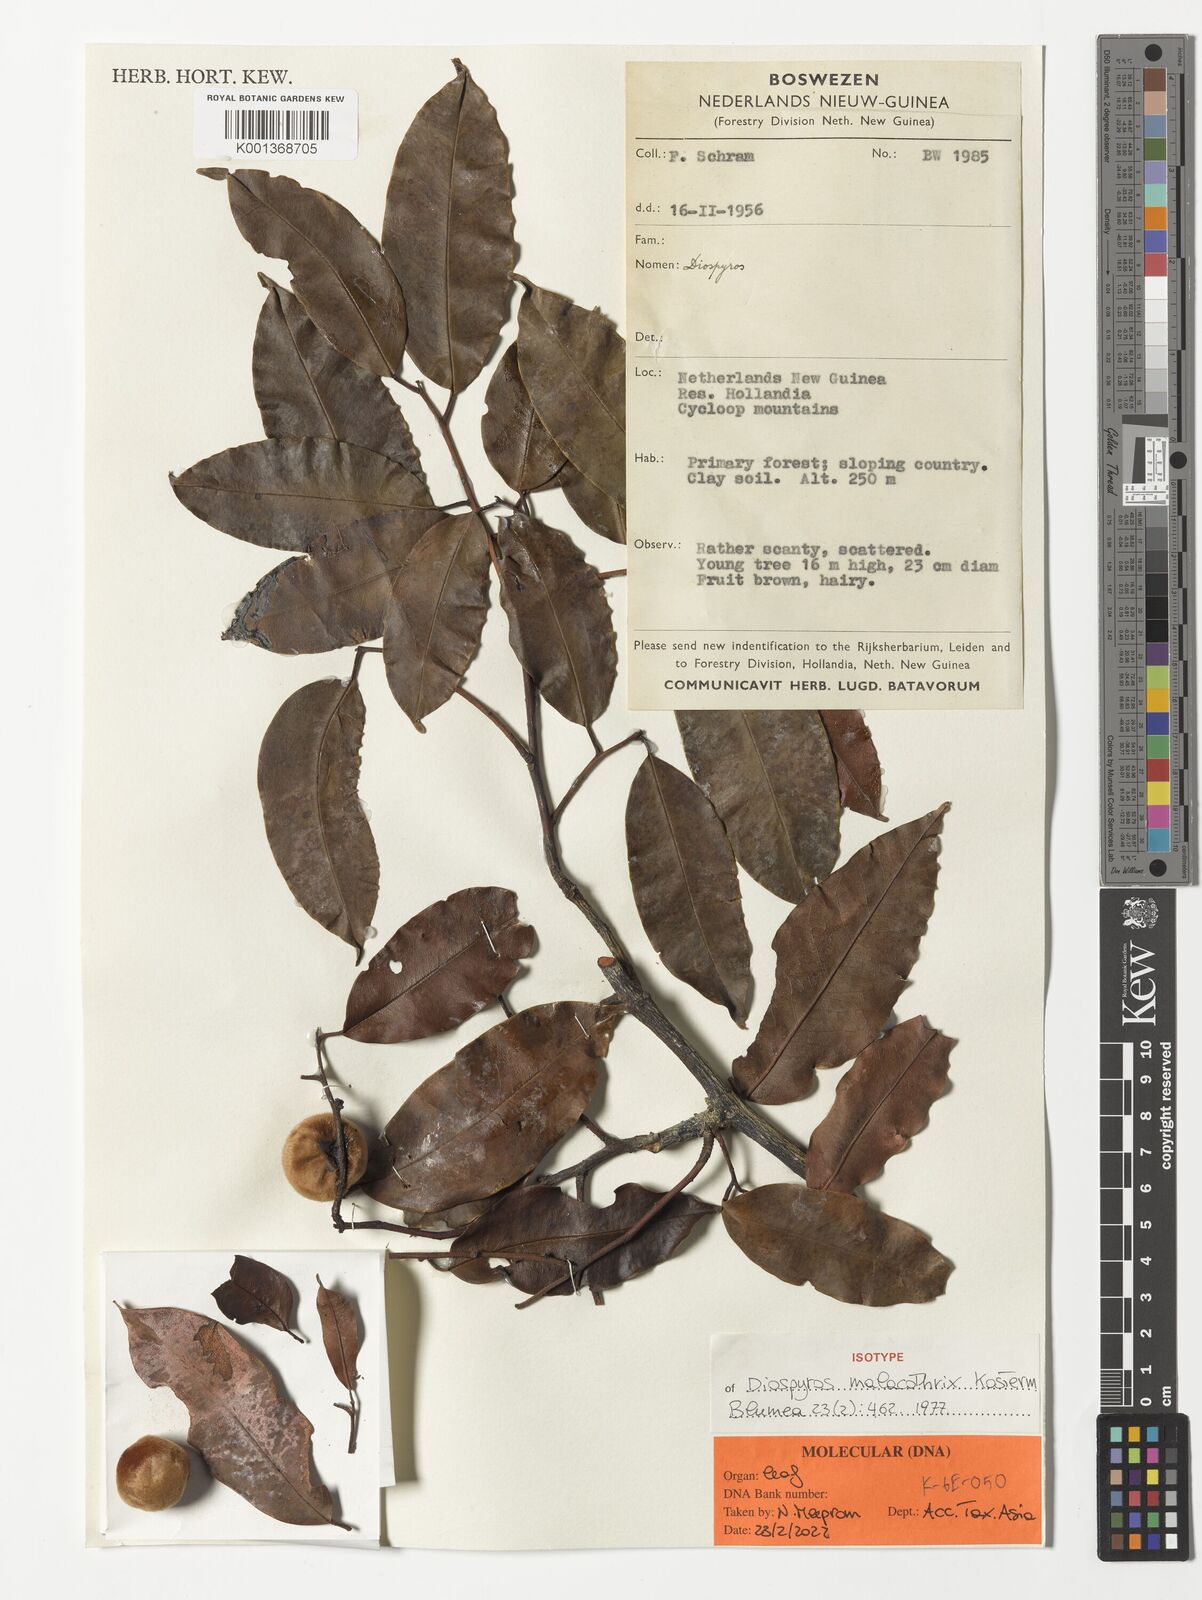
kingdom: Plantae
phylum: Tracheophyta
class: Magnoliopsida
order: Ericales
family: Ebenaceae
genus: Diospyros
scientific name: Diospyros malacothrix
